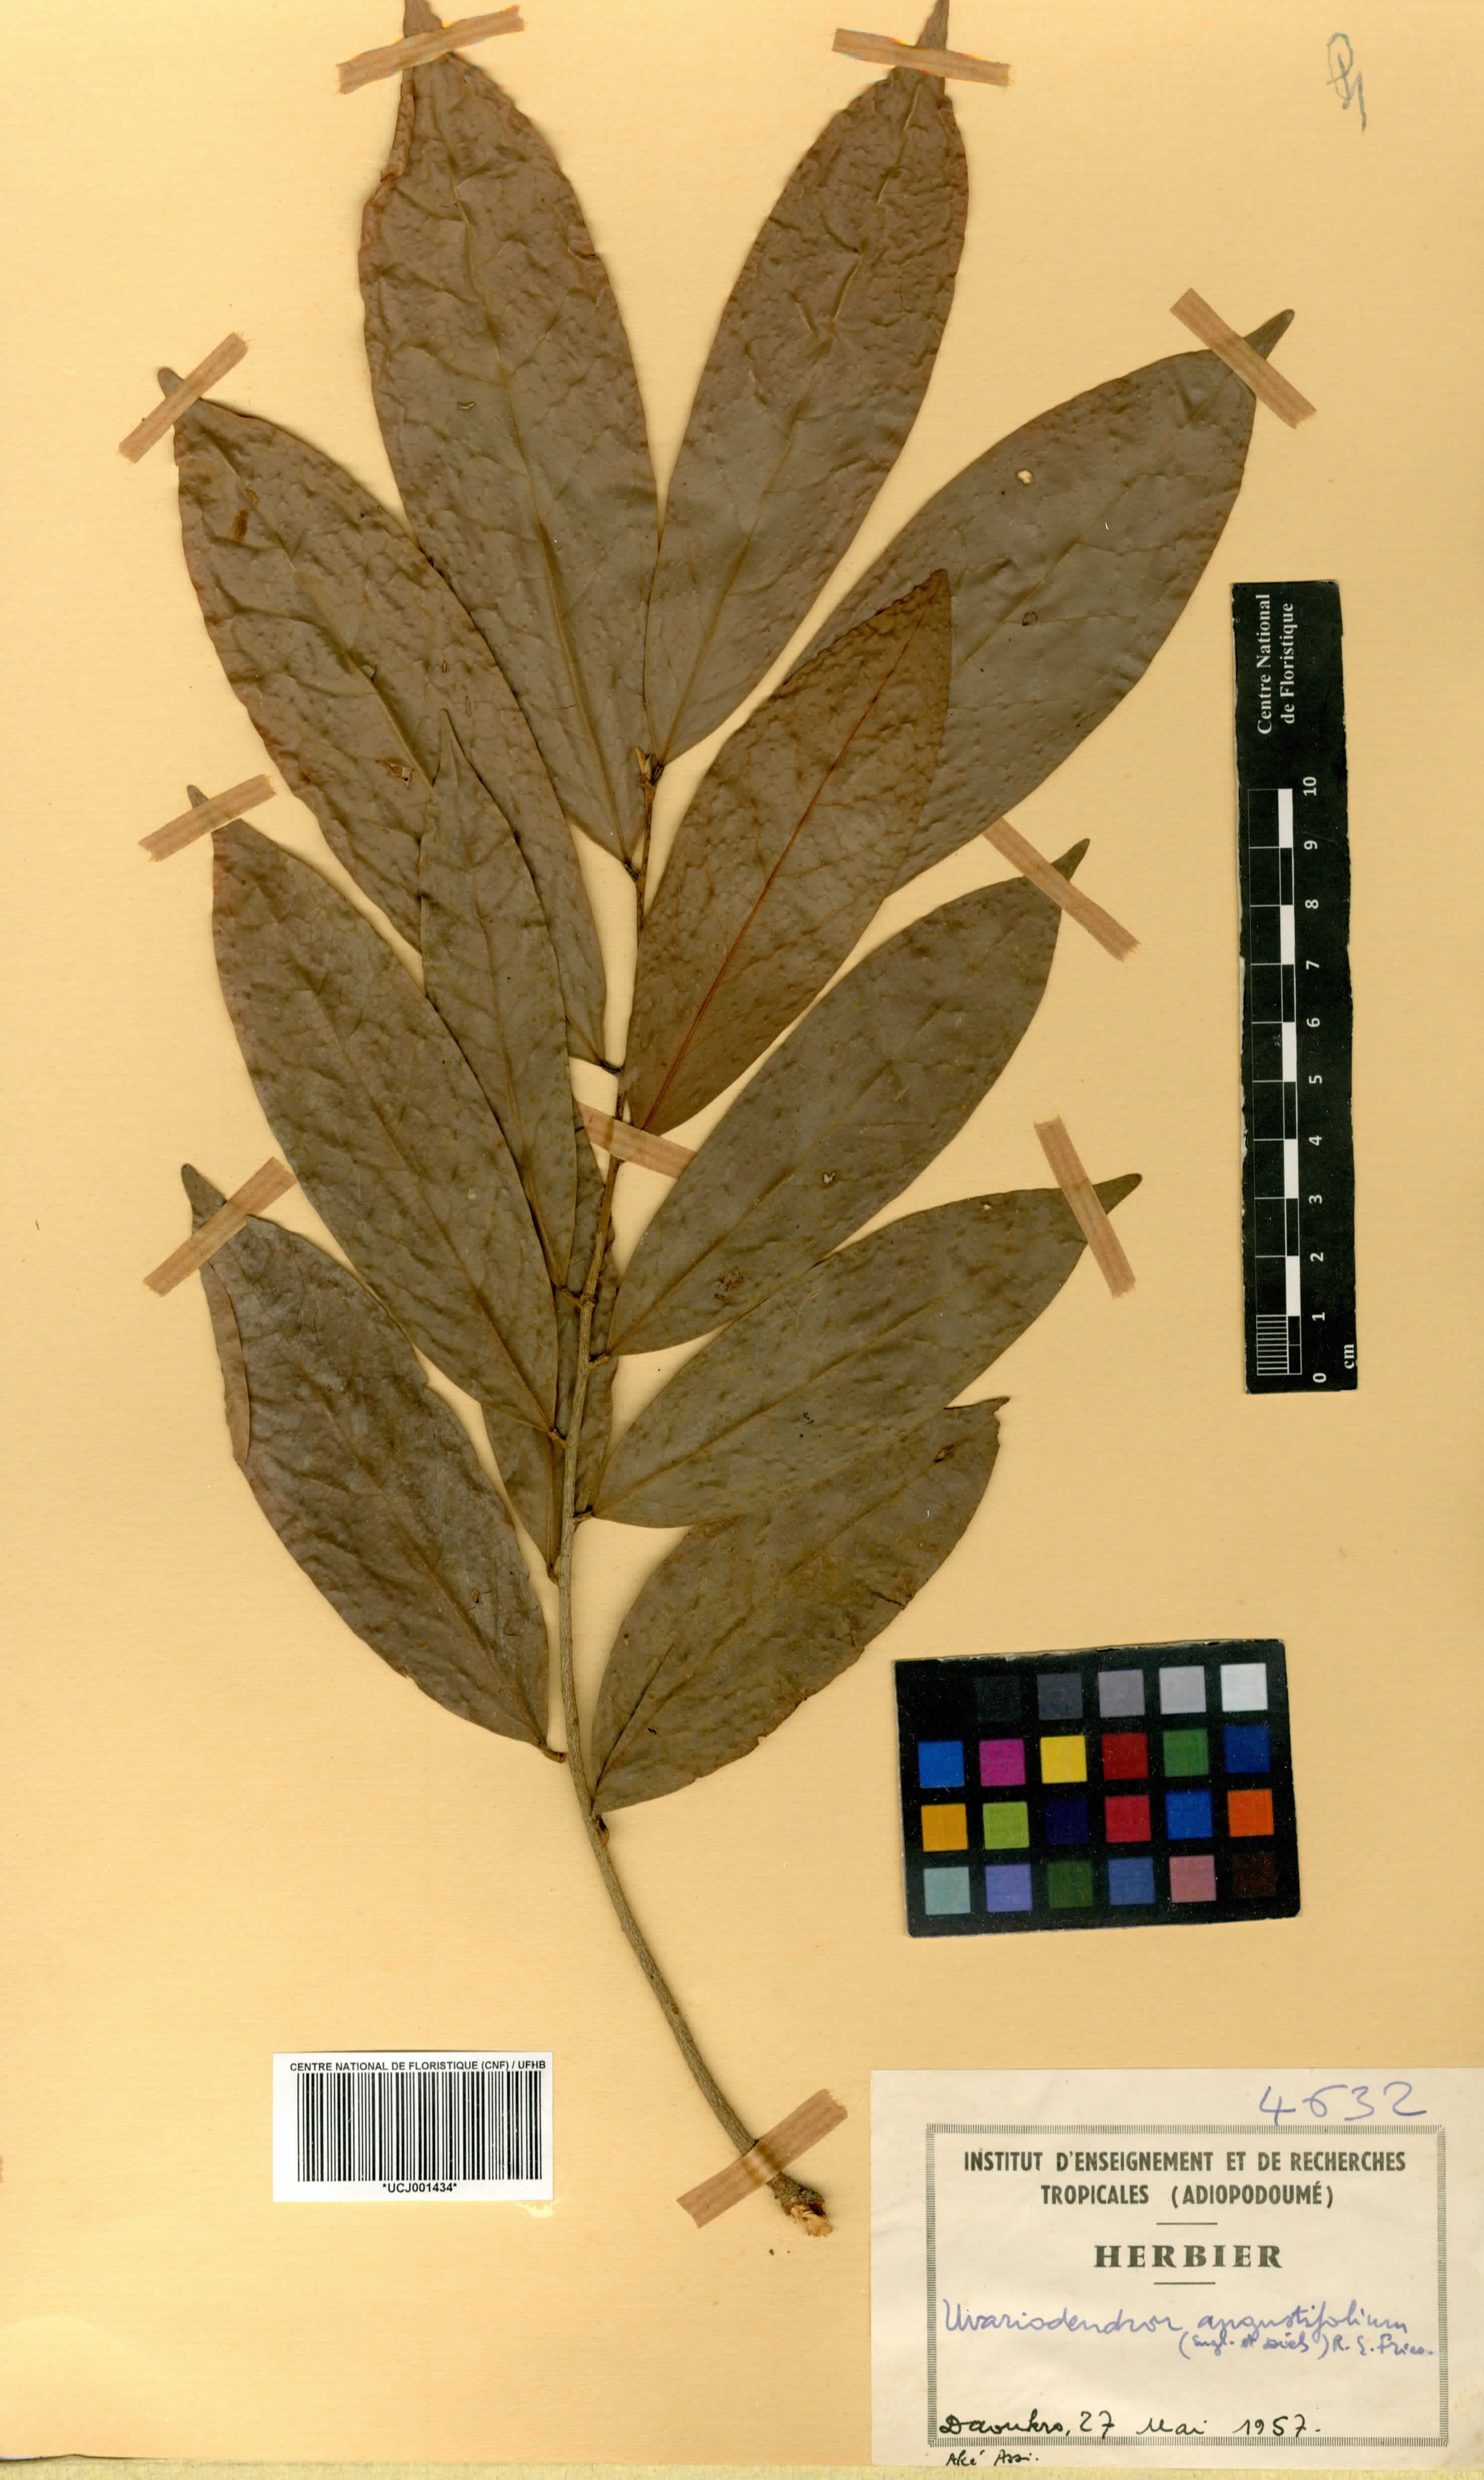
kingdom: Plantae
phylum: Tracheophyta
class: Magnoliopsida
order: Magnoliales
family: Annonaceae
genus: Uvariodendron
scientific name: Uvariodendron angustifolium
